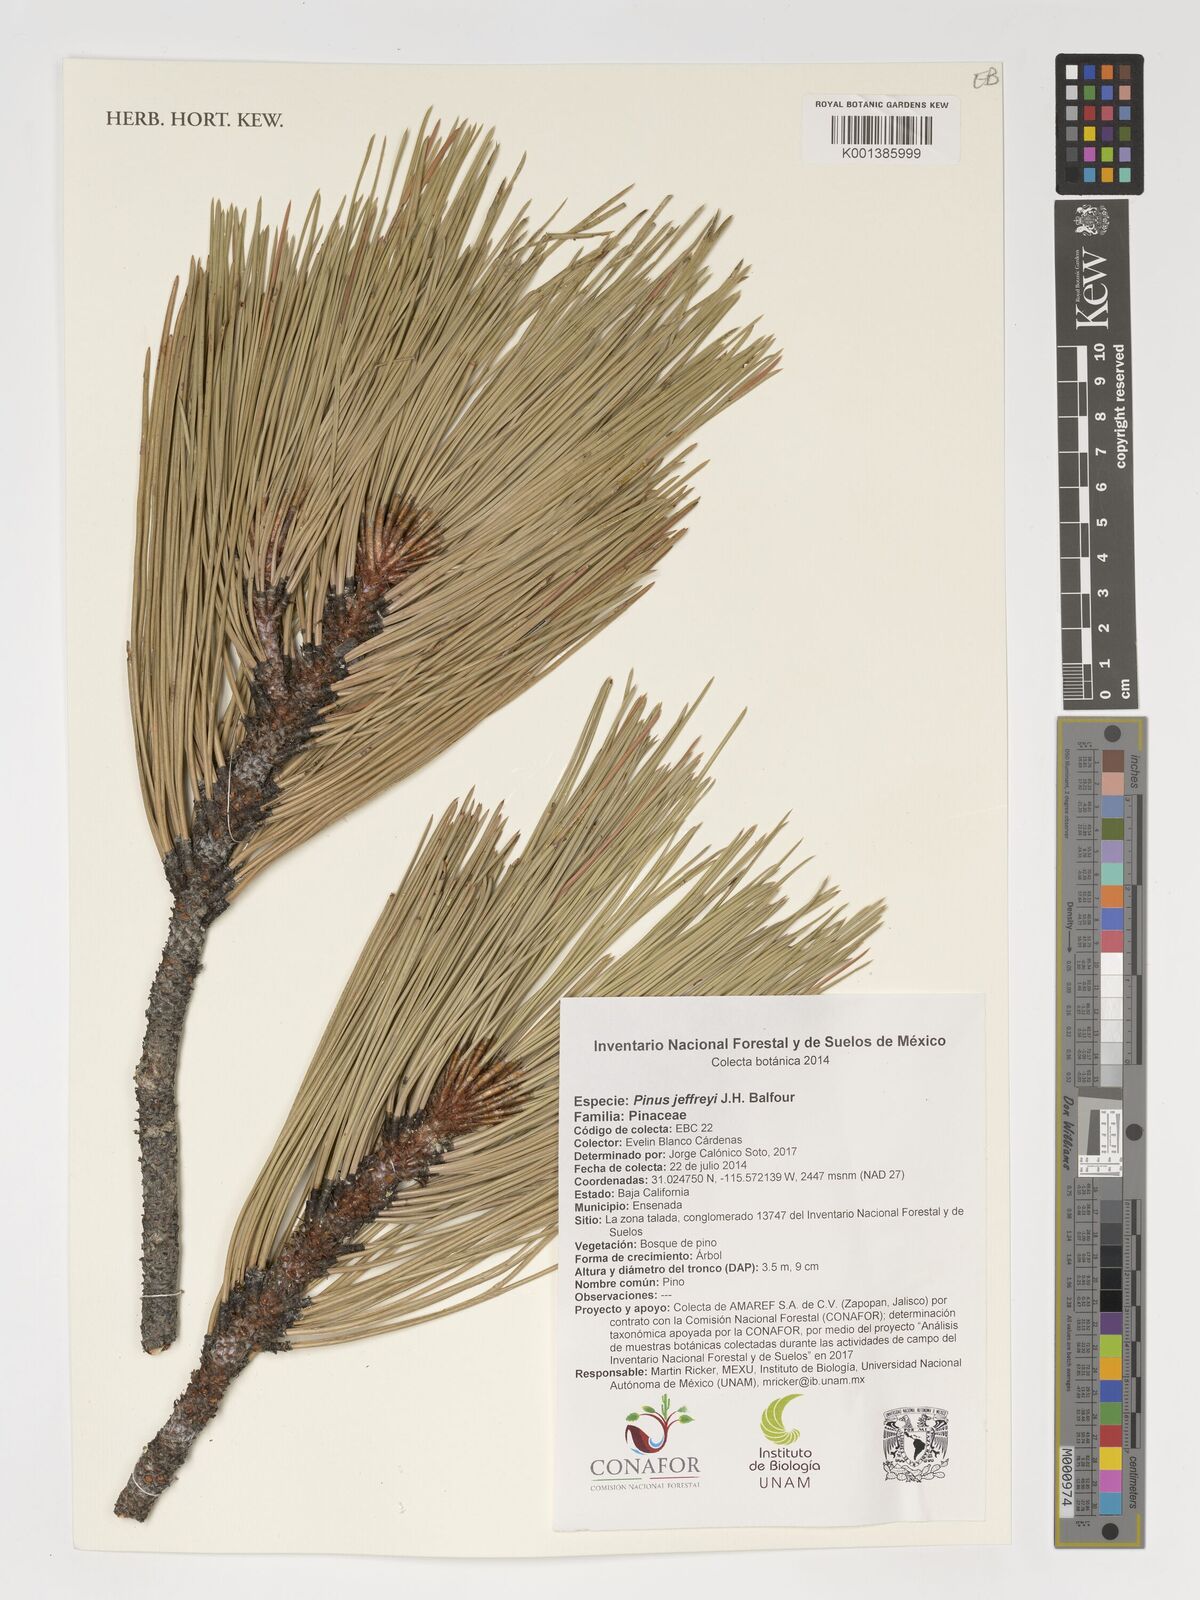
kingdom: Plantae
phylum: Tracheophyta
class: Pinopsida
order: Pinales
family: Pinaceae
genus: Pinus
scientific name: Pinus jeffreyi
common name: Jeffrey pine
